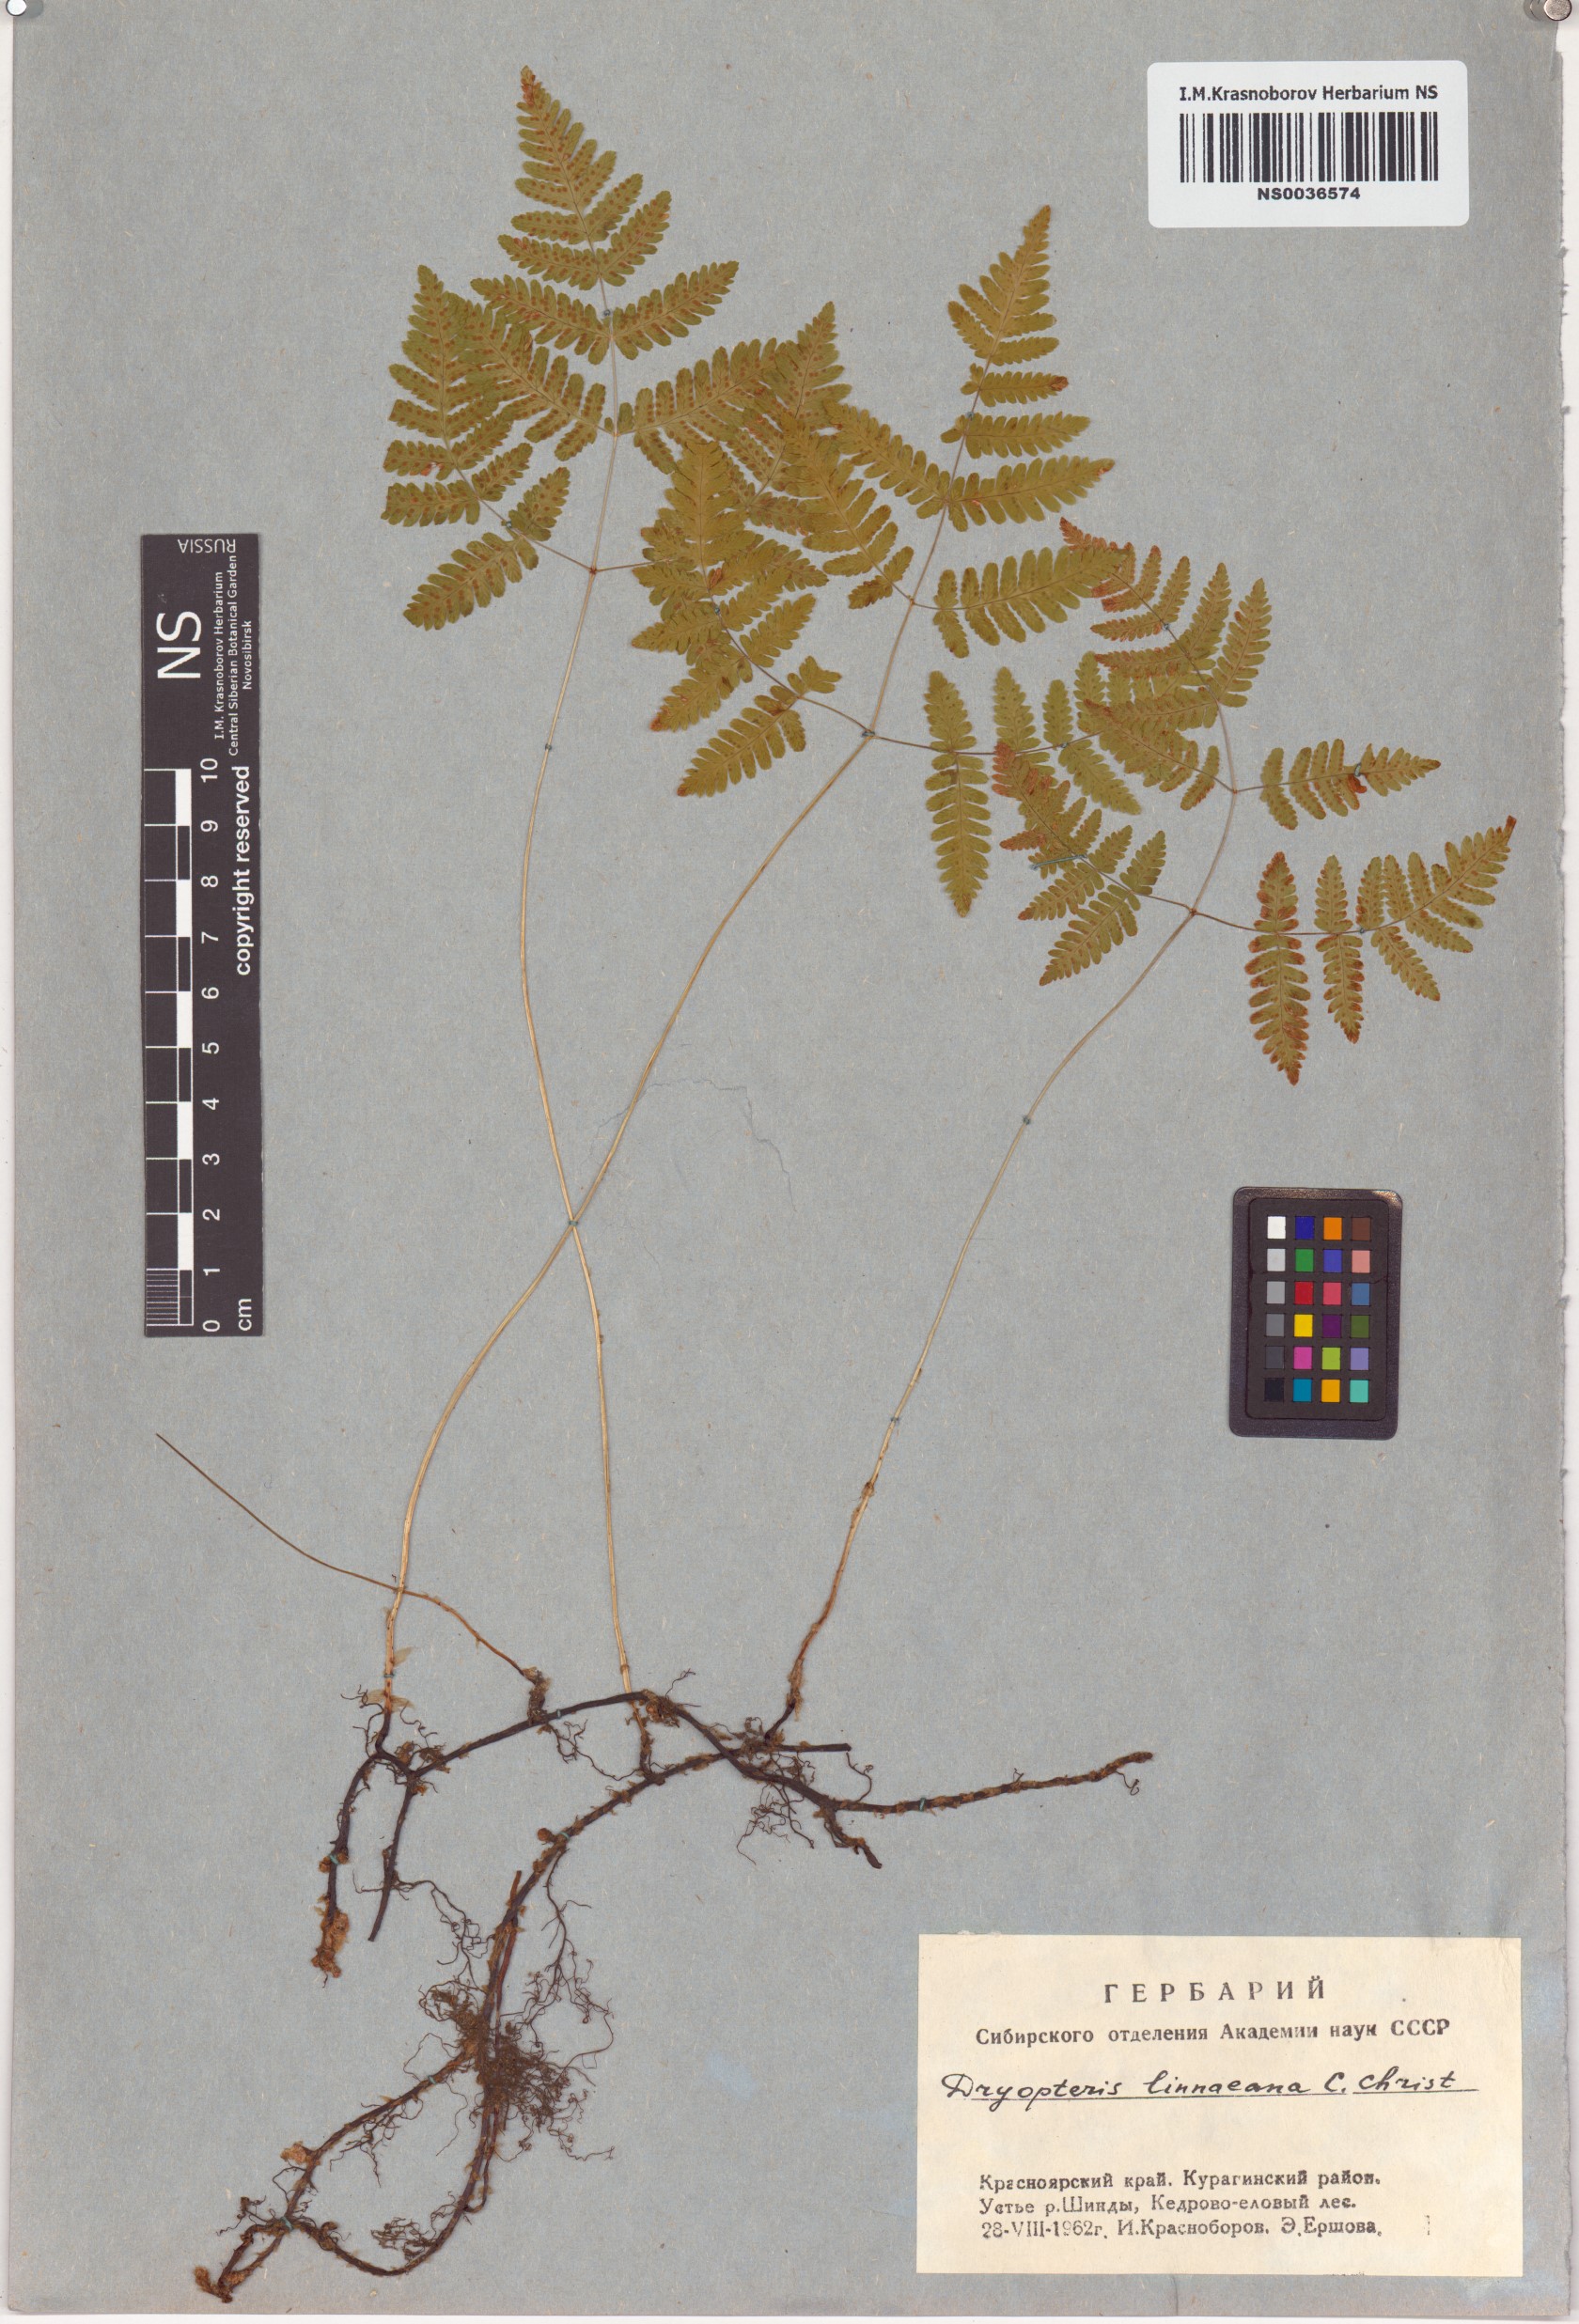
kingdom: Plantae
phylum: Tracheophyta
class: Polypodiopsida
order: Polypodiales
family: Cystopteridaceae
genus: Gymnocarpium
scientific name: Gymnocarpium dryopteris
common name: Oak fern
